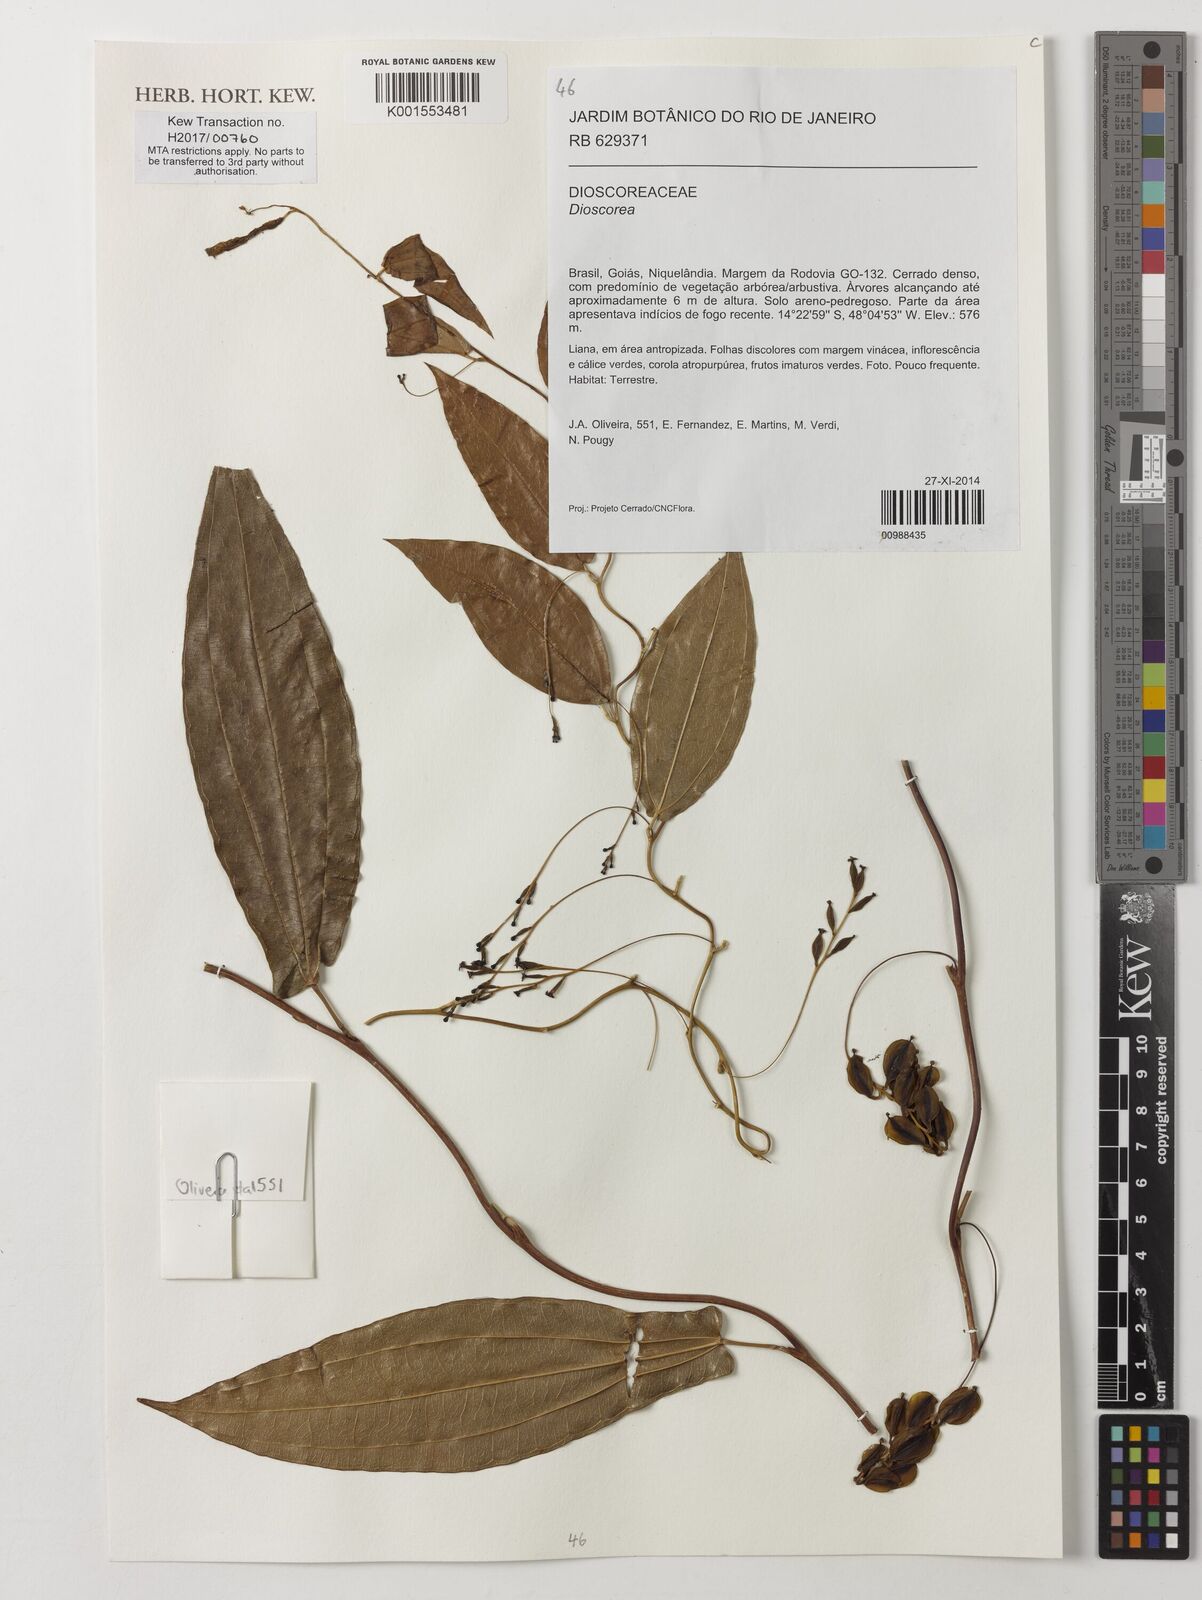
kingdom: Plantae
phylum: Tracheophyta
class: Liliopsida
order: Dioscoreales
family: Dioscoreaceae
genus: Dioscorea
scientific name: Dioscorea
